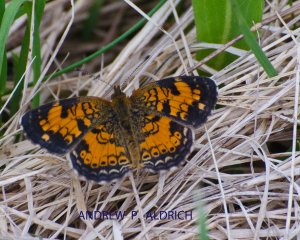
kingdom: Animalia
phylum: Arthropoda
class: Insecta
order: Lepidoptera
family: Nymphalidae
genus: Phyciodes
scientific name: Phyciodes tharos
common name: Northern Crescent
